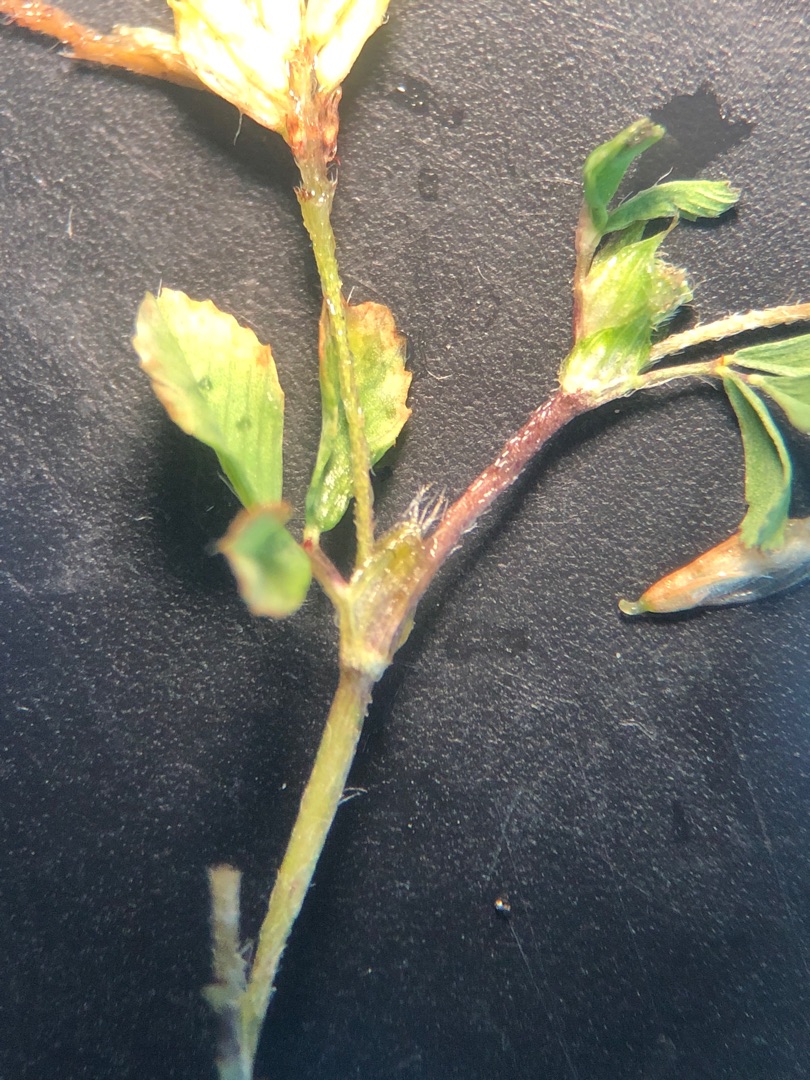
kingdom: Plantae
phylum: Tracheophyta
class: Magnoliopsida
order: Fabales
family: Fabaceae
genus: Trifolium
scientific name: Trifolium dubium
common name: Fin kløver
